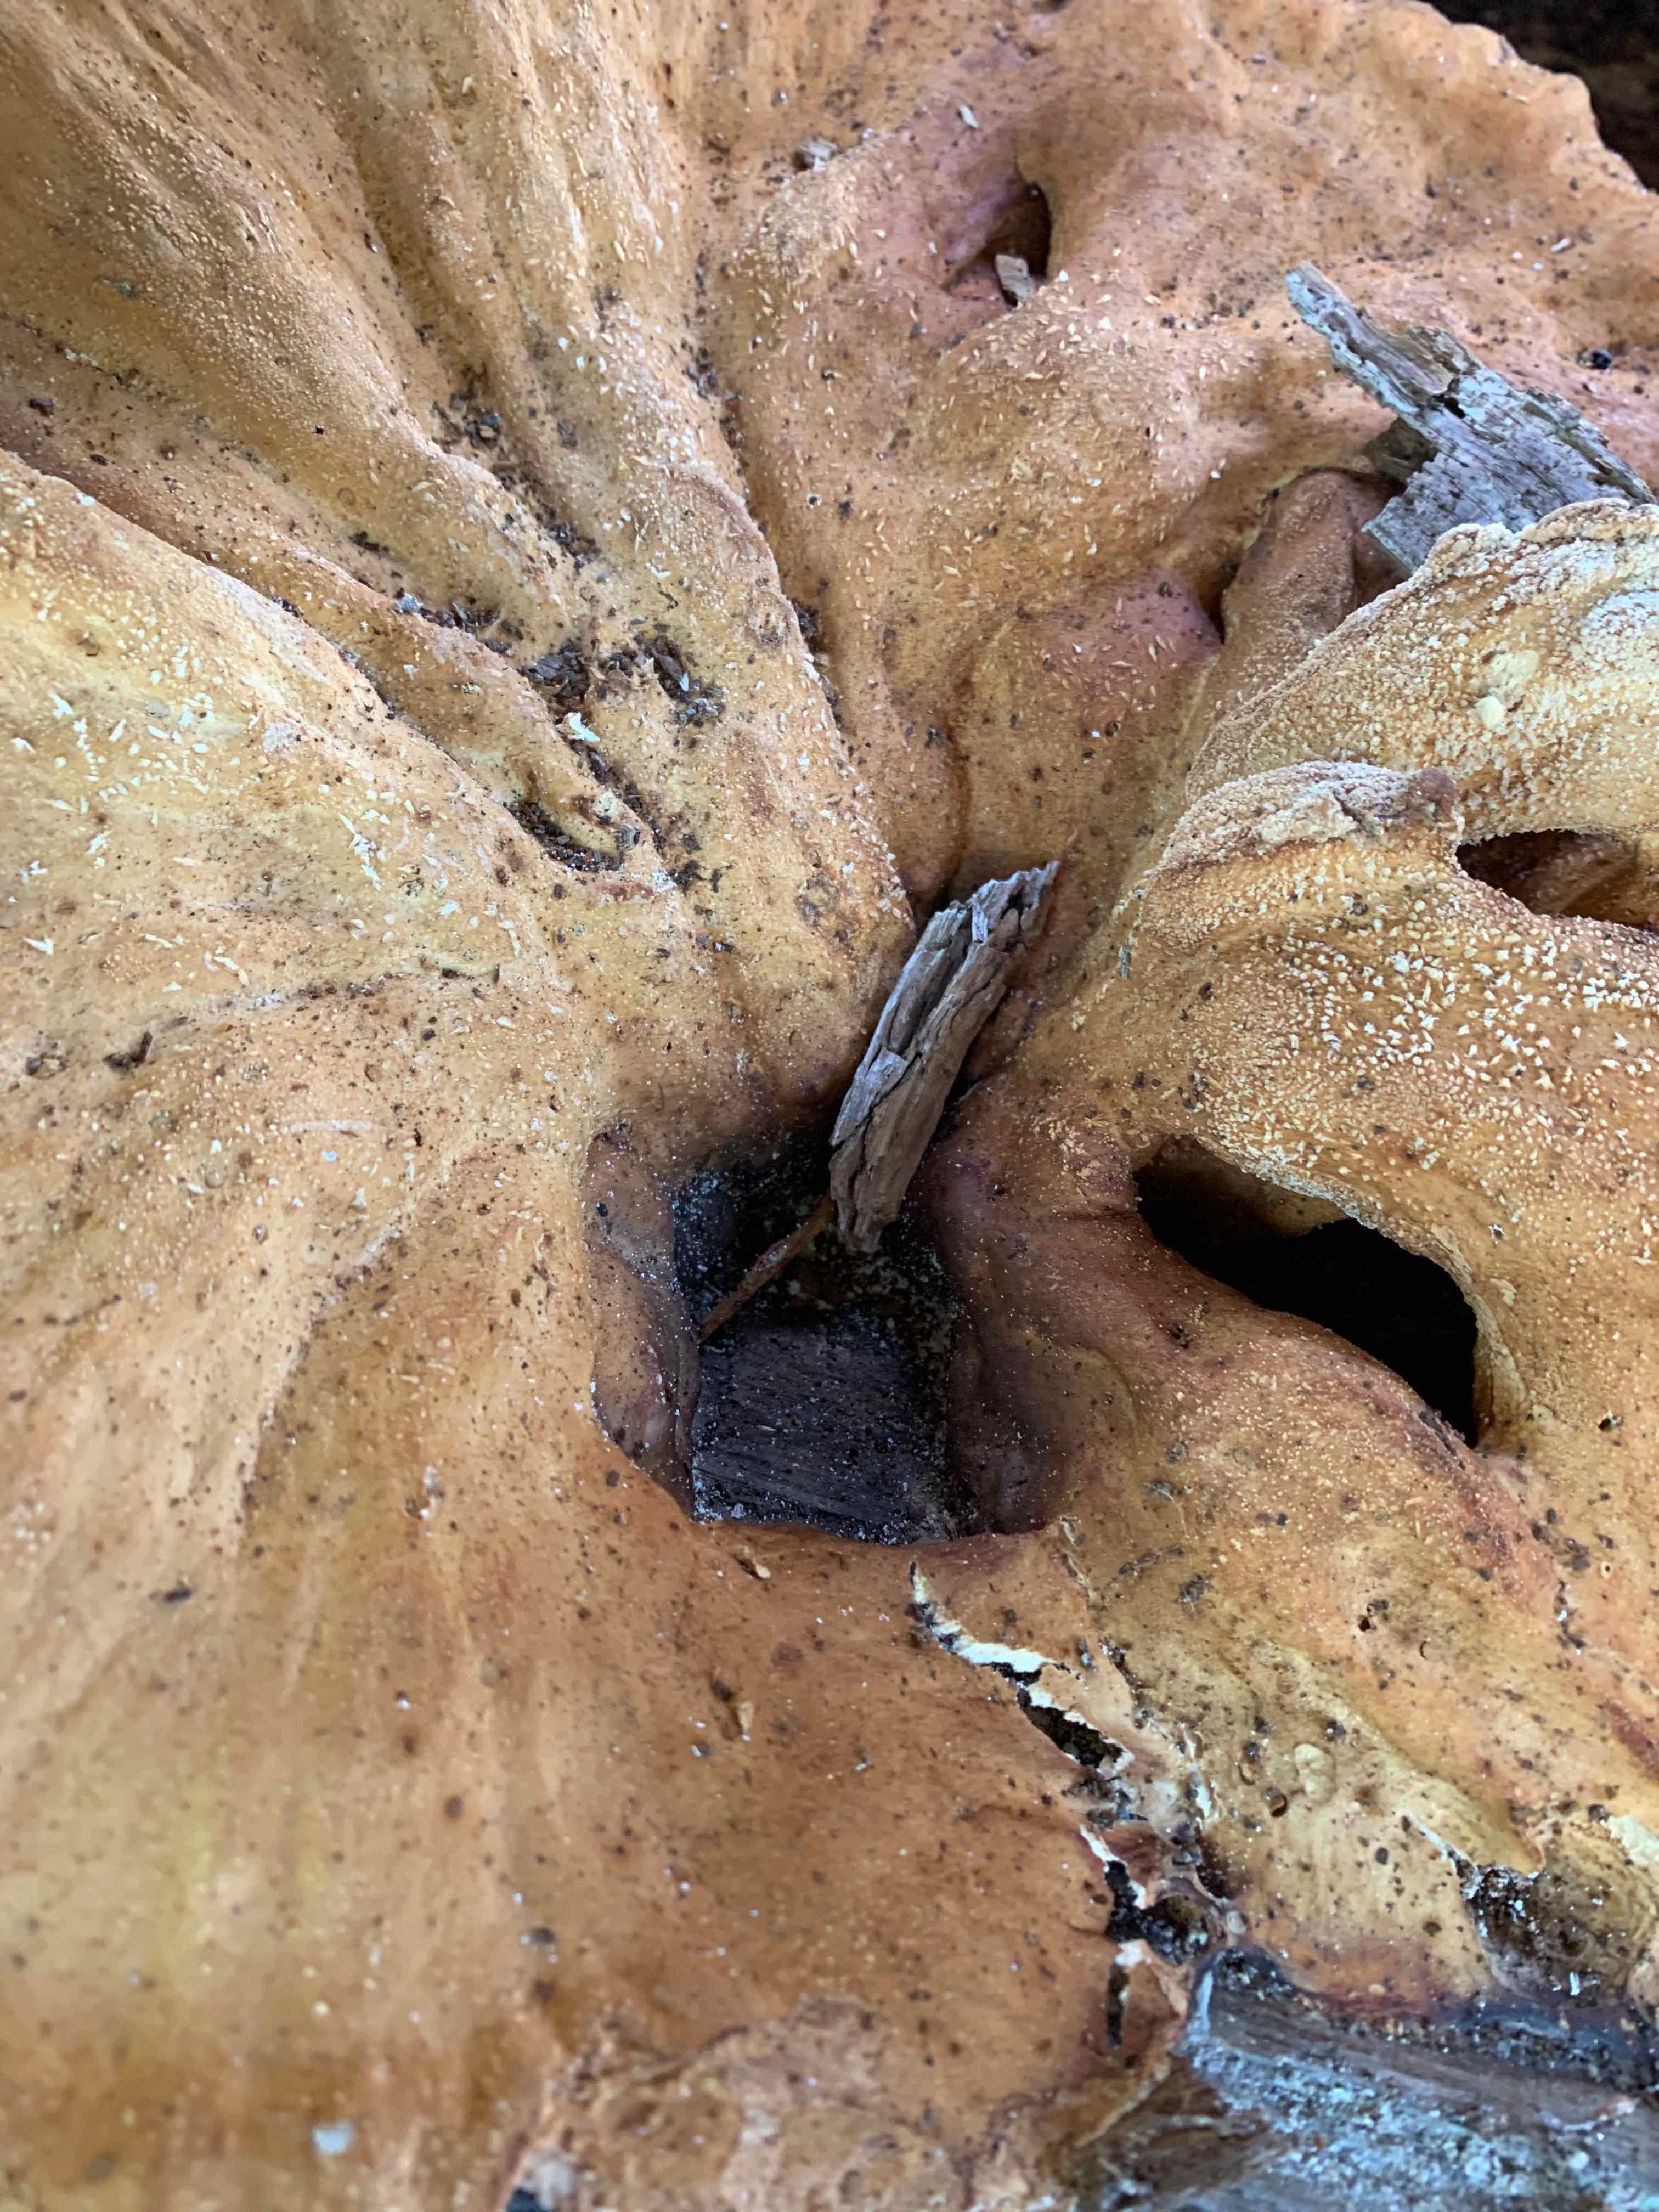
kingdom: Fungi
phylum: Basidiomycota
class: Agaricomycetes
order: Polyporales
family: Laetiporaceae
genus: Laetiporus
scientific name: Laetiporus sulphureus
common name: svovlporesvamp
